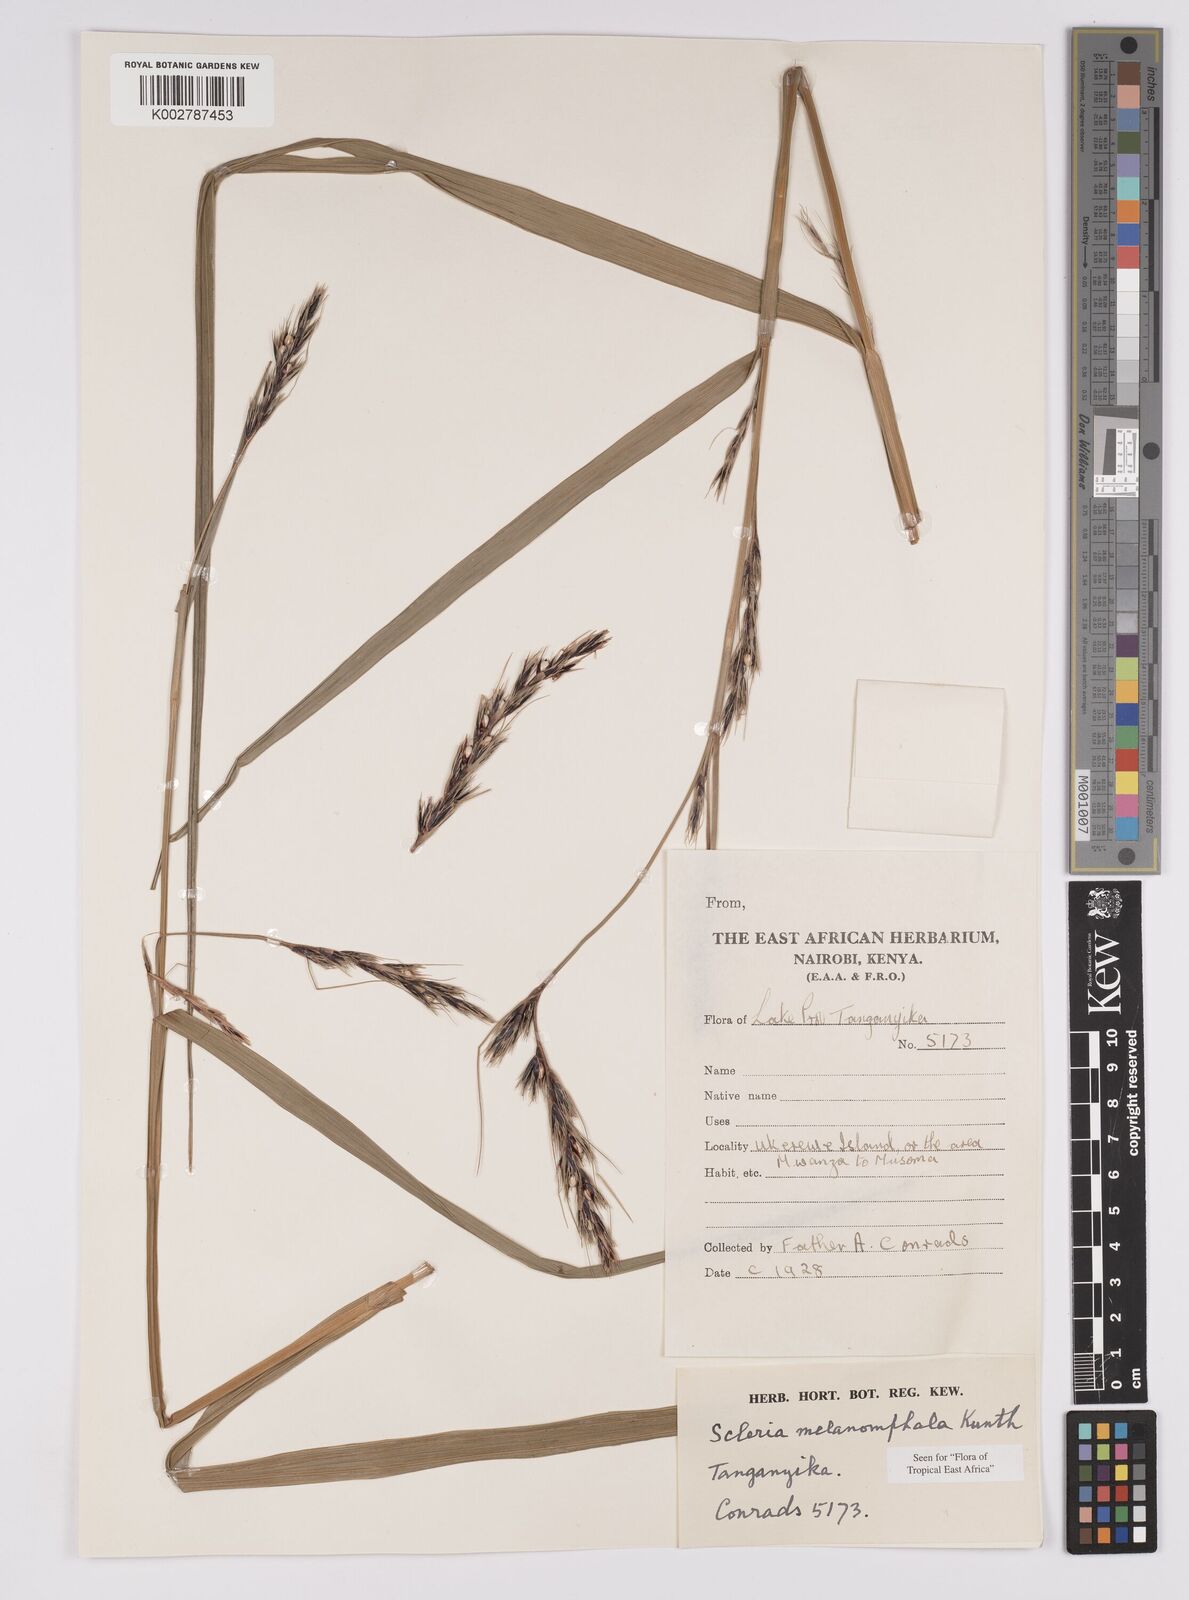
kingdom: Plantae
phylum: Tracheophyta
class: Liliopsida
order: Poales
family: Cyperaceae
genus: Scleria
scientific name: Scleria melanomphala
